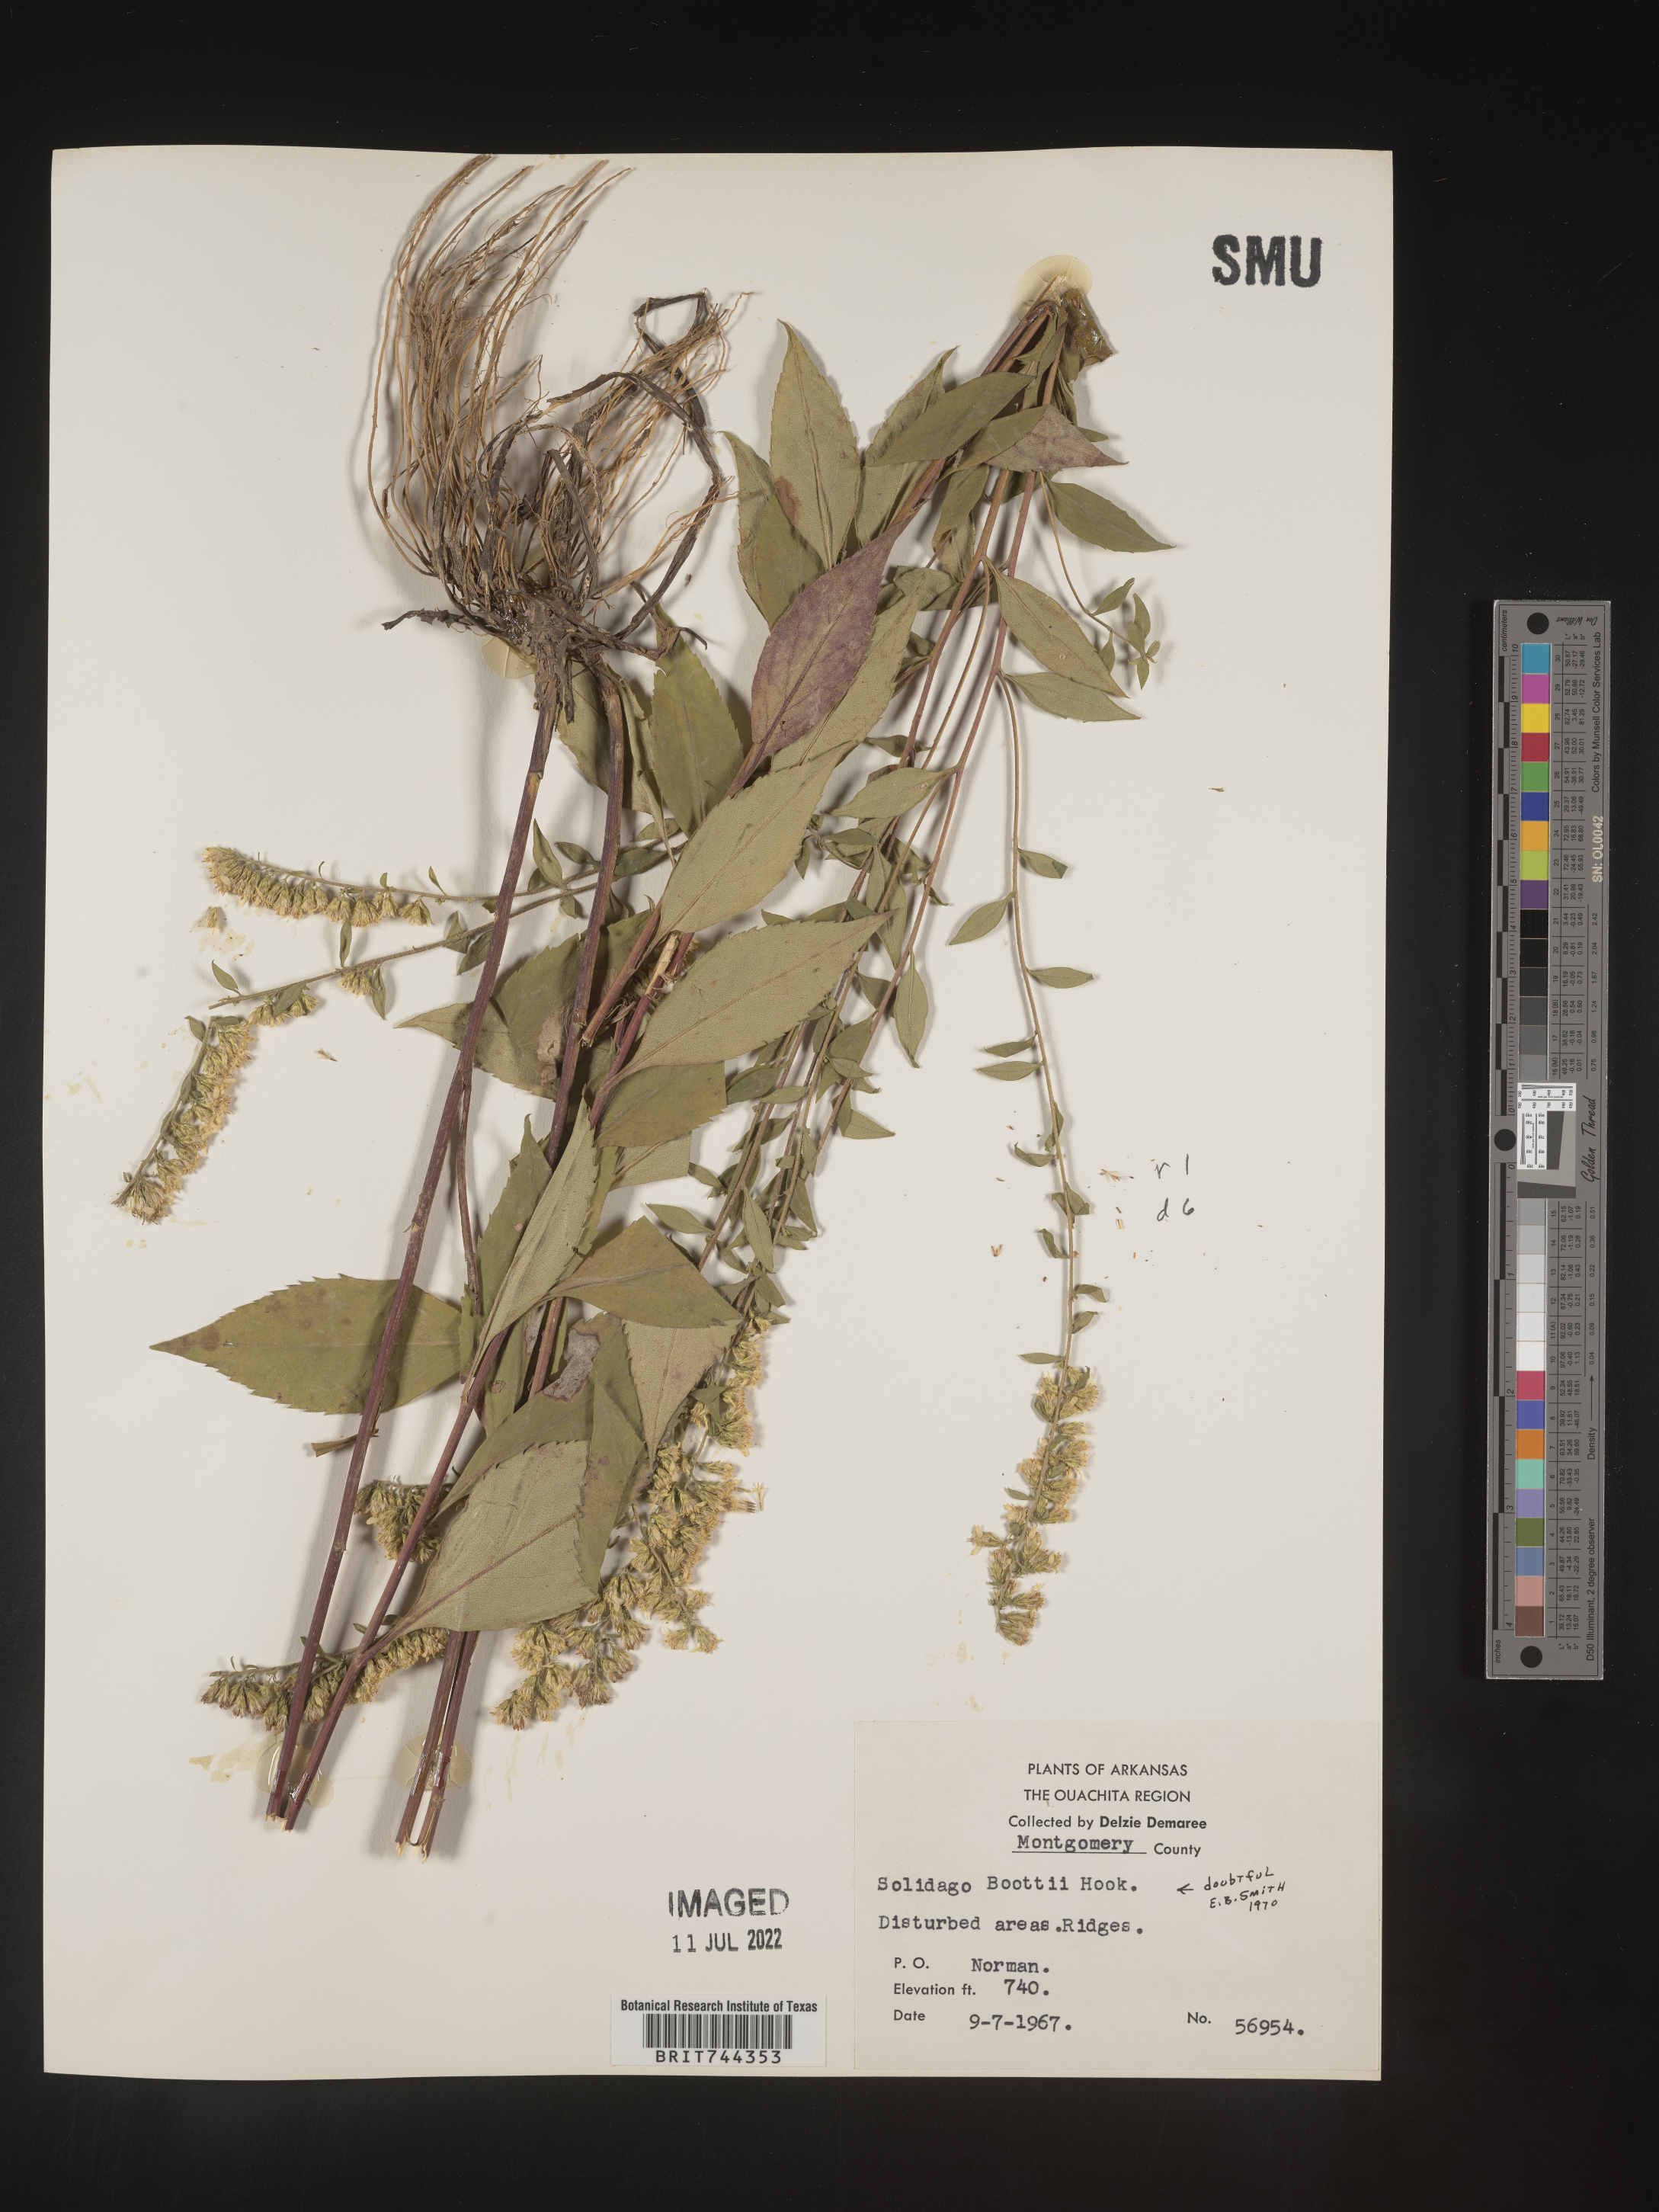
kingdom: Plantae
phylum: Tracheophyta
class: Magnoliopsida
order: Asterales
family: Asteraceae
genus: Solidago
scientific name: Solidago arguta
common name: Atlantic goldenrod
